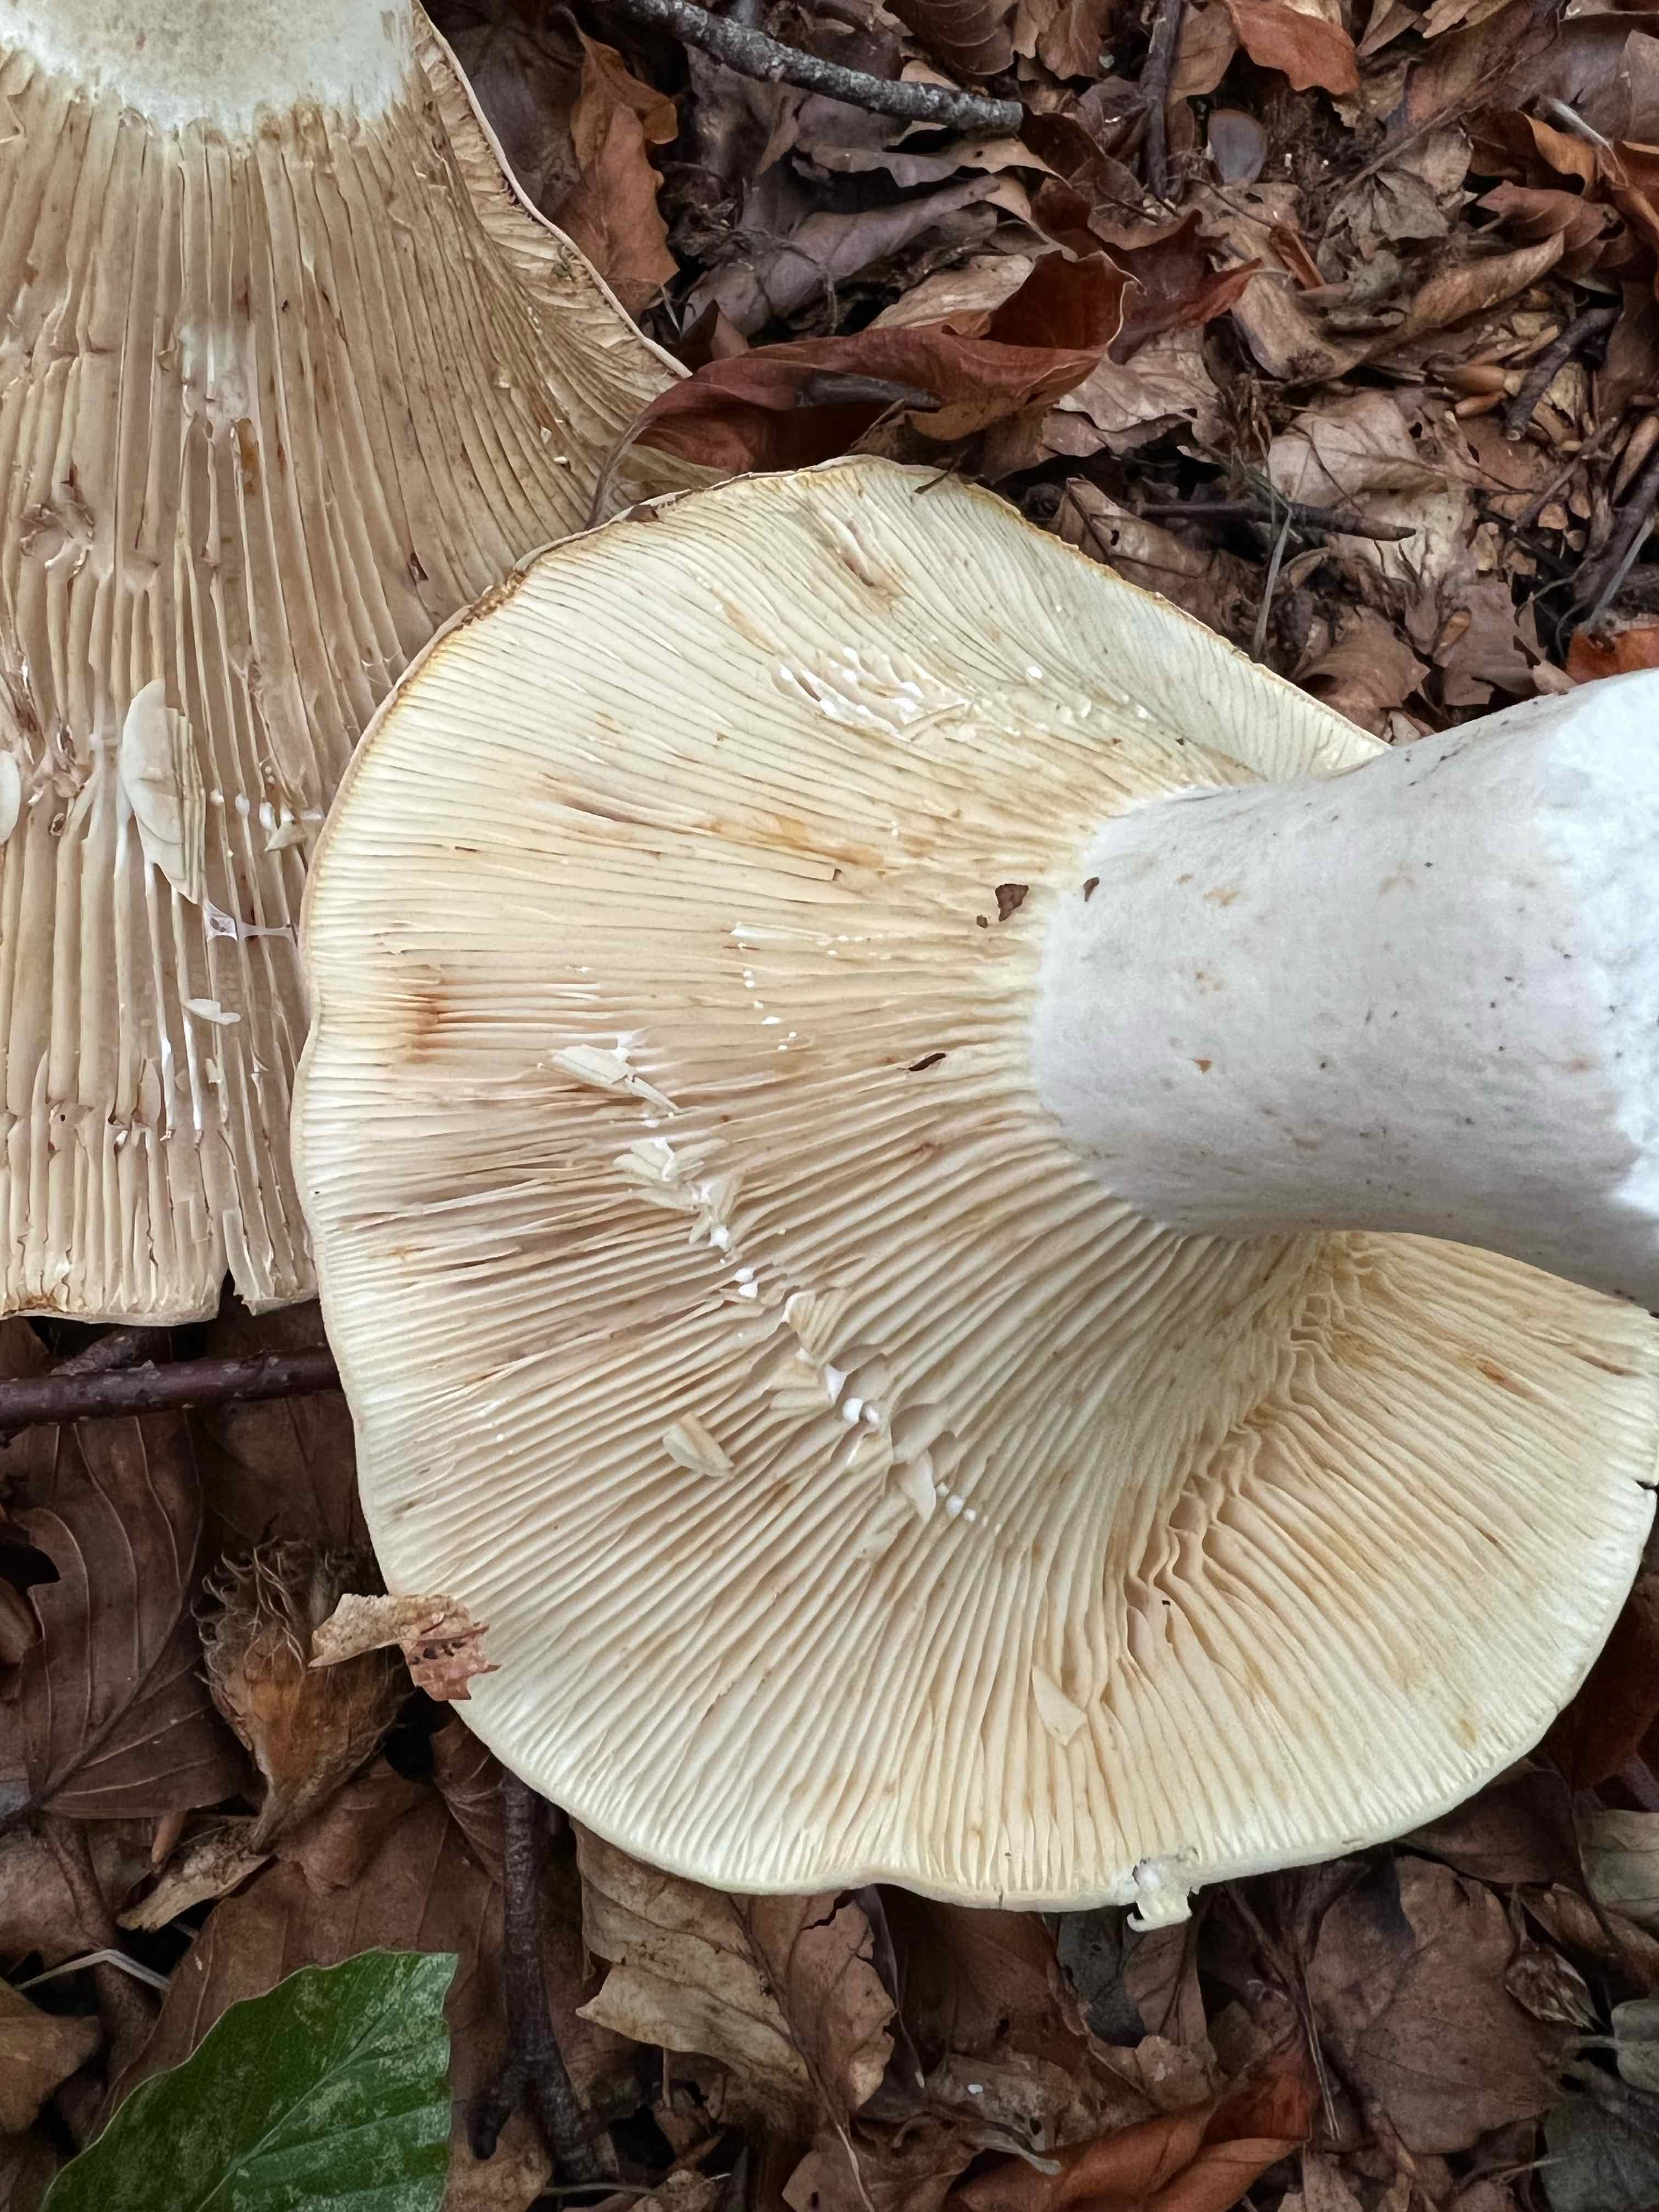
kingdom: Fungi
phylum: Basidiomycota
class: Agaricomycetes
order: Russulales
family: Russulaceae
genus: Lactifluus
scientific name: Lactifluus vellereus
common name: hvidfiltet mælkehat
